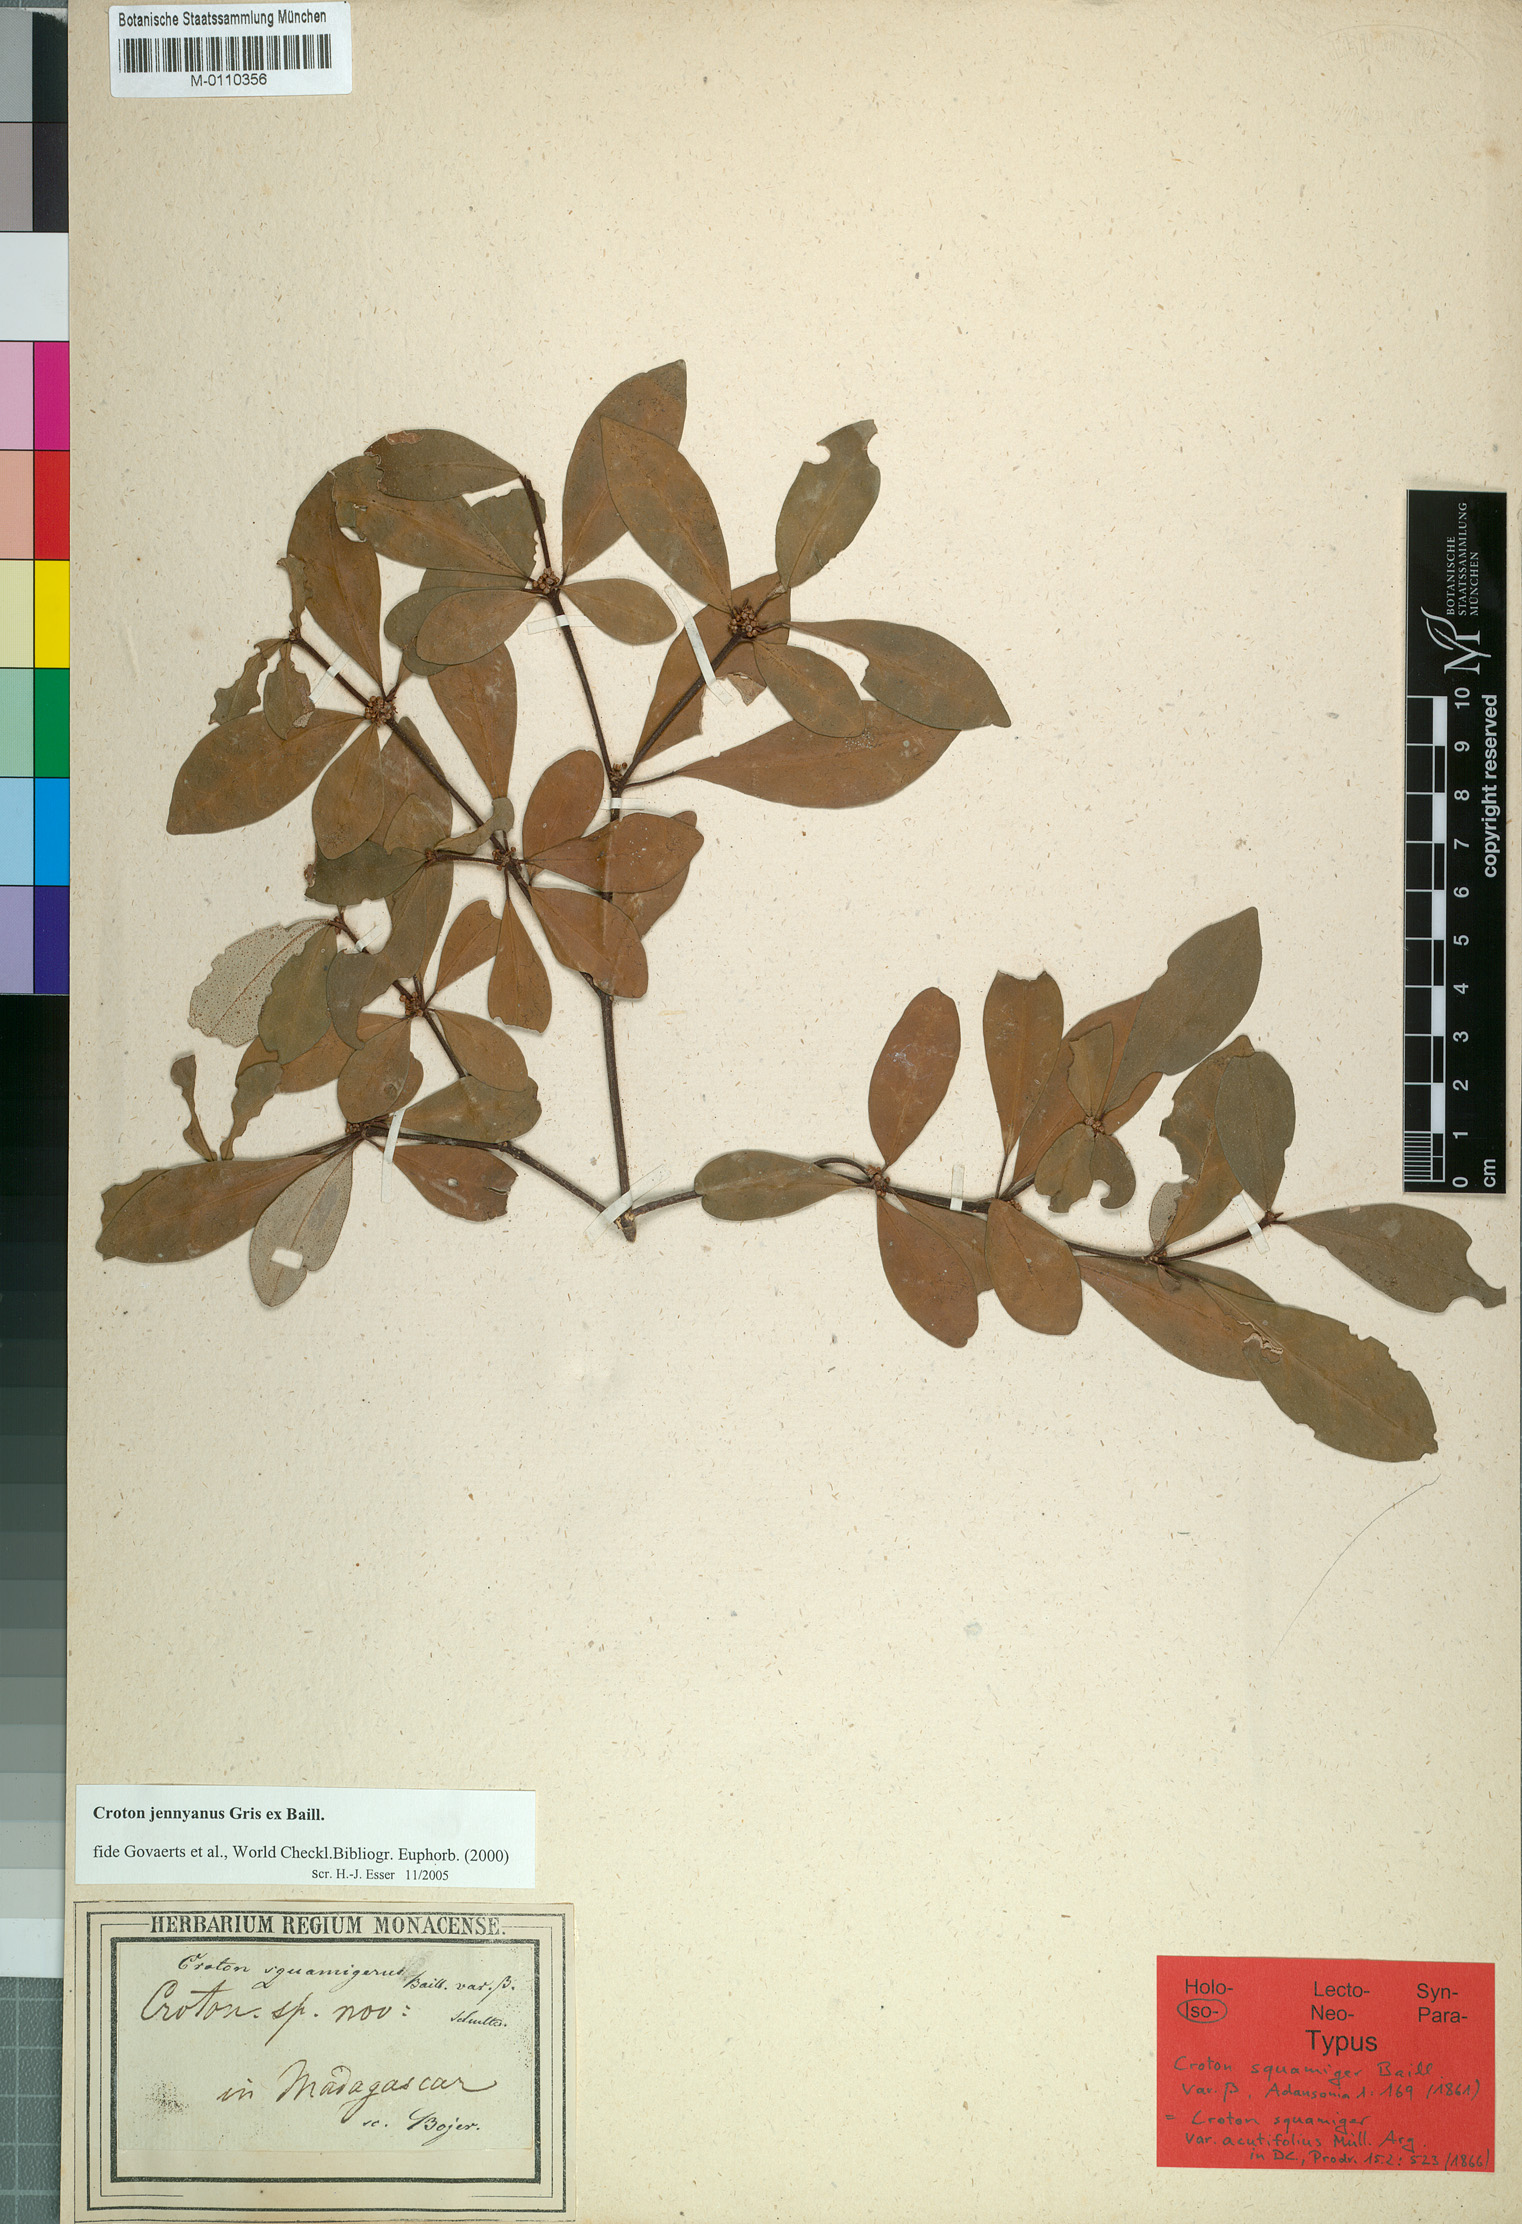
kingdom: Plantae
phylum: Tracheophyta
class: Magnoliopsida
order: Malpighiales
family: Euphorbiaceae
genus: Croton
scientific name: Croton jennyanus
